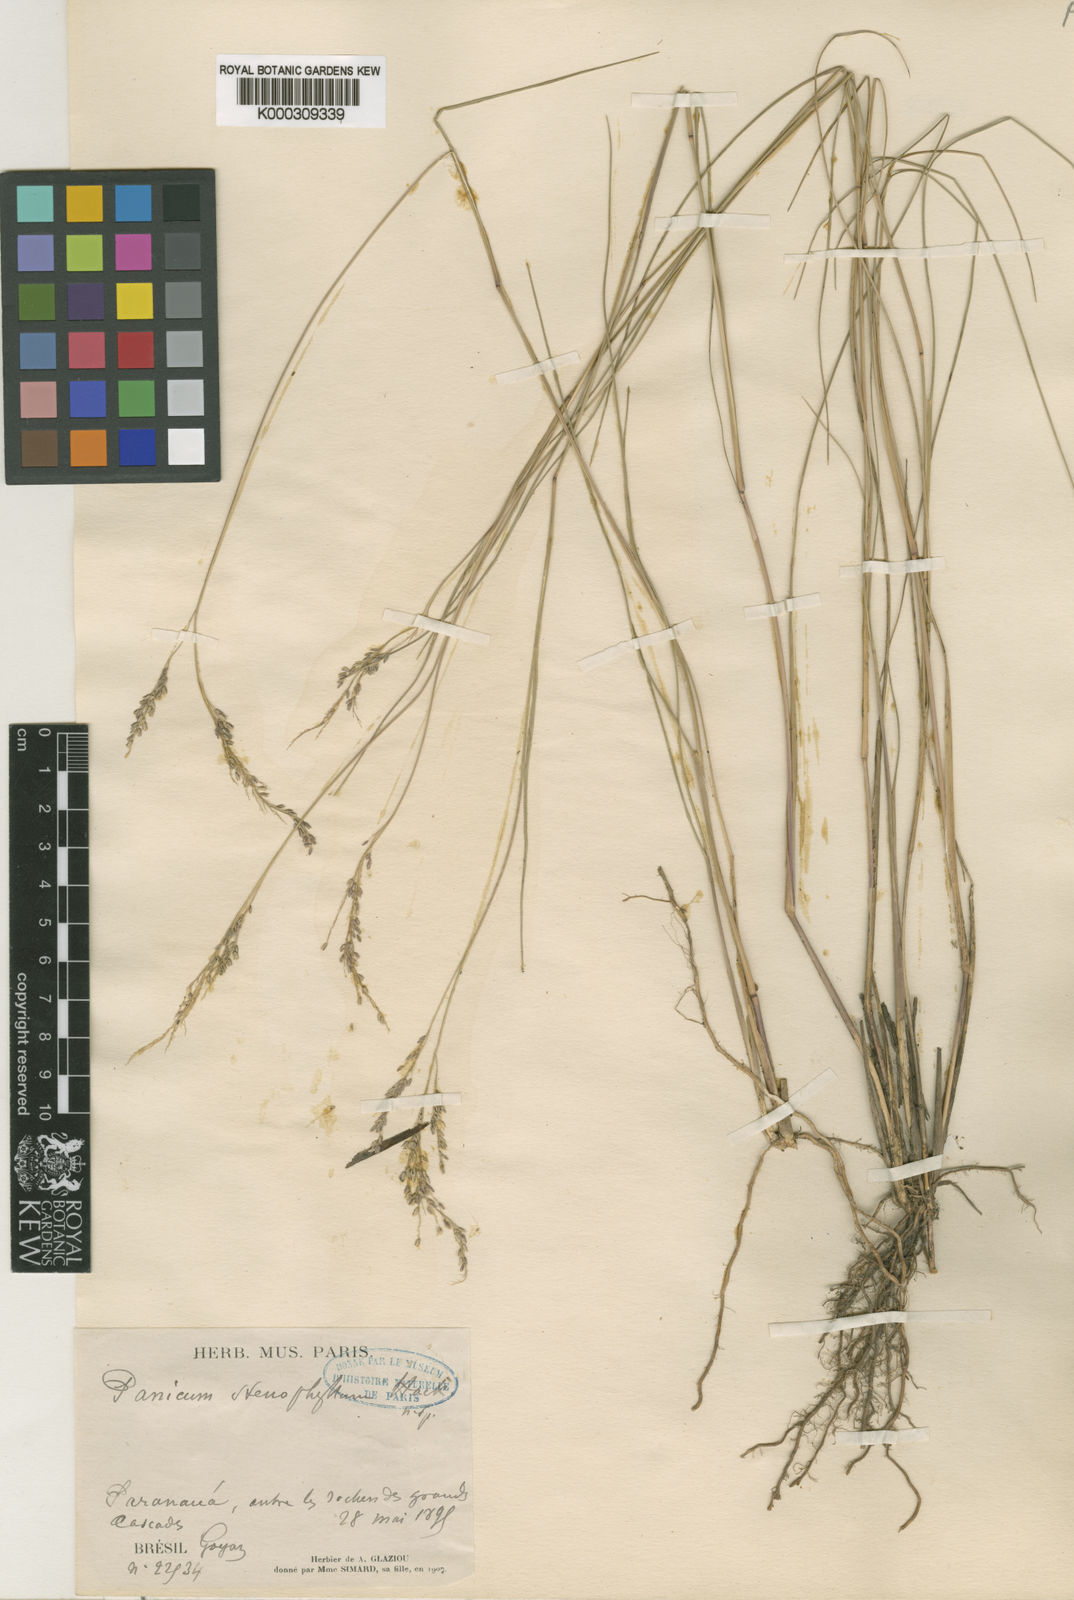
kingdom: Plantae
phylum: Tracheophyta
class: Liliopsida
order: Poales
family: Poaceae
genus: Steinchisma
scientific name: Steinchisma stenophyllum
